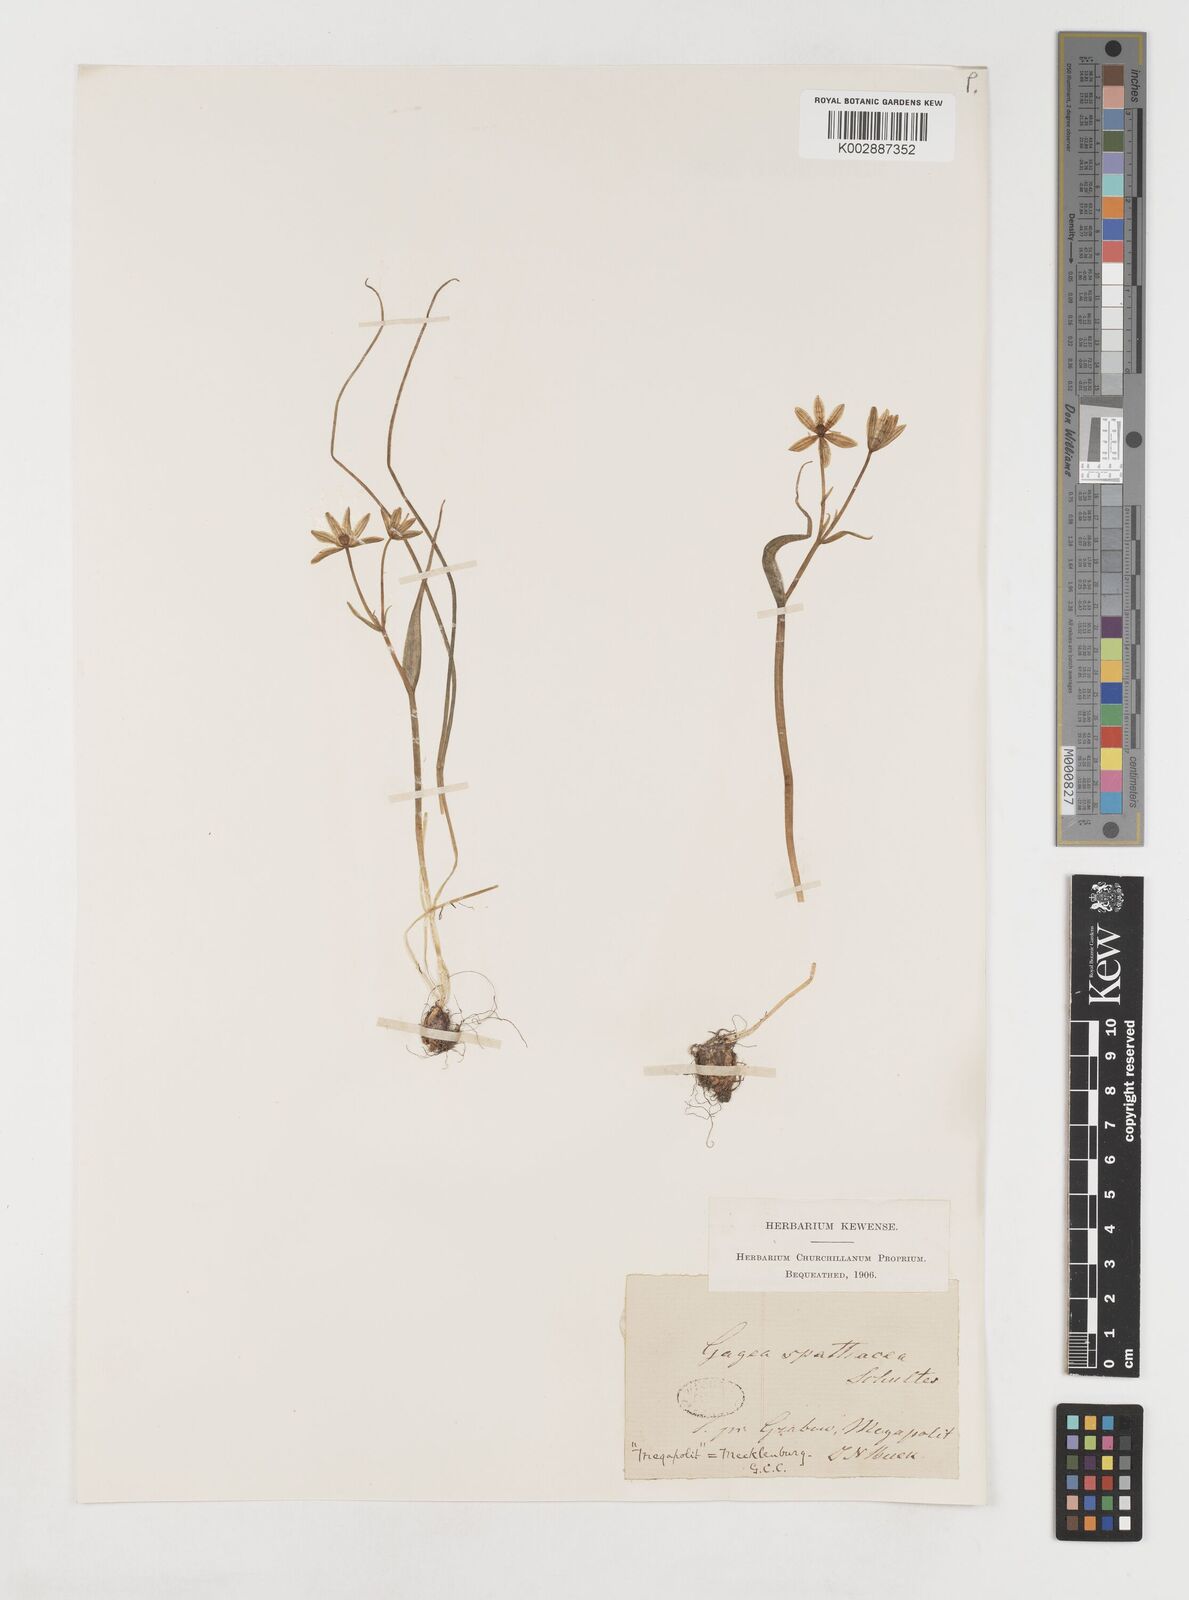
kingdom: Plantae
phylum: Tracheophyta
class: Liliopsida
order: Liliales
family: Liliaceae
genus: Gagea
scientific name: Gagea spathacea
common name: Belgian gagea
